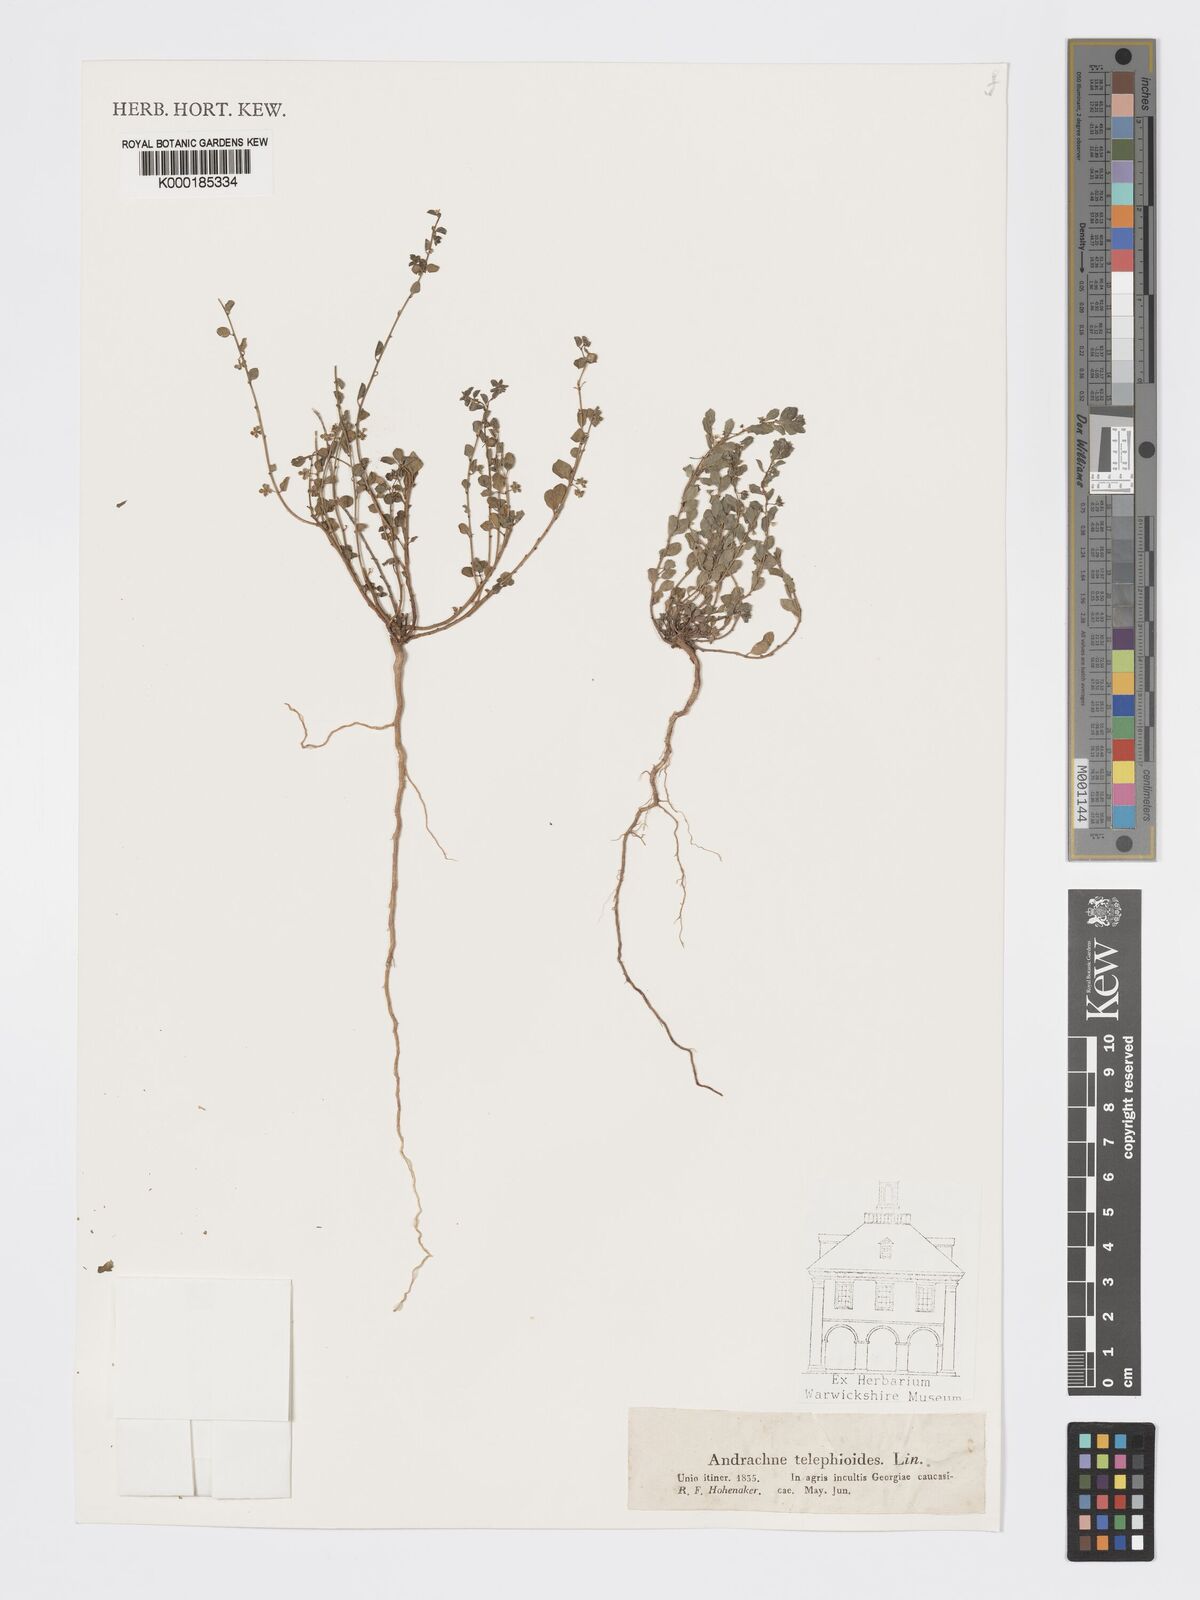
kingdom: Plantae
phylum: Tracheophyta
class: Magnoliopsida
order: Malpighiales
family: Phyllanthaceae
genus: Andrachne
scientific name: Andrachne telephioides
